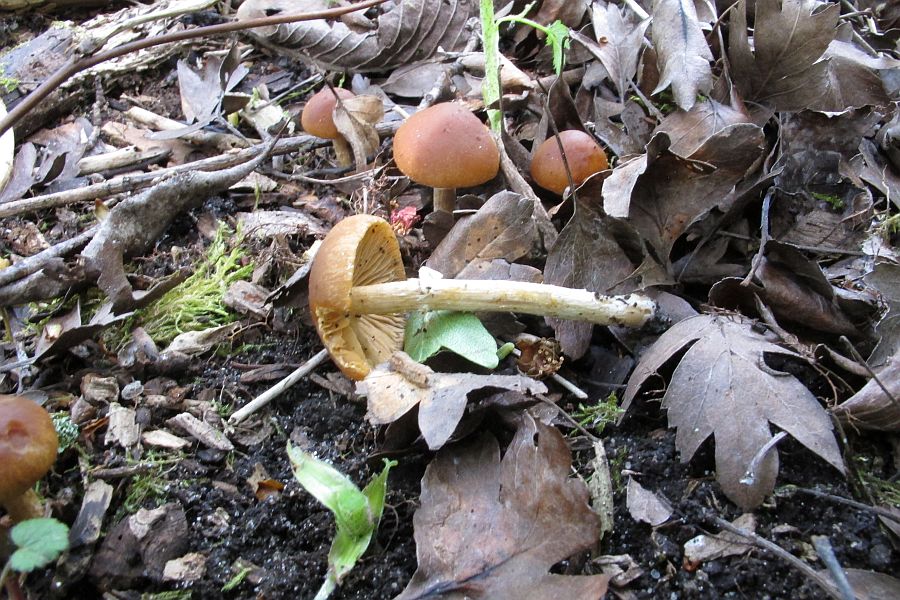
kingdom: Fungi
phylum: Basidiomycota
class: Agaricomycetes
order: Agaricales
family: Bolbitiaceae
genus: Conocybe
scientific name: Conocybe aporos
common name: tidlig dansehat
